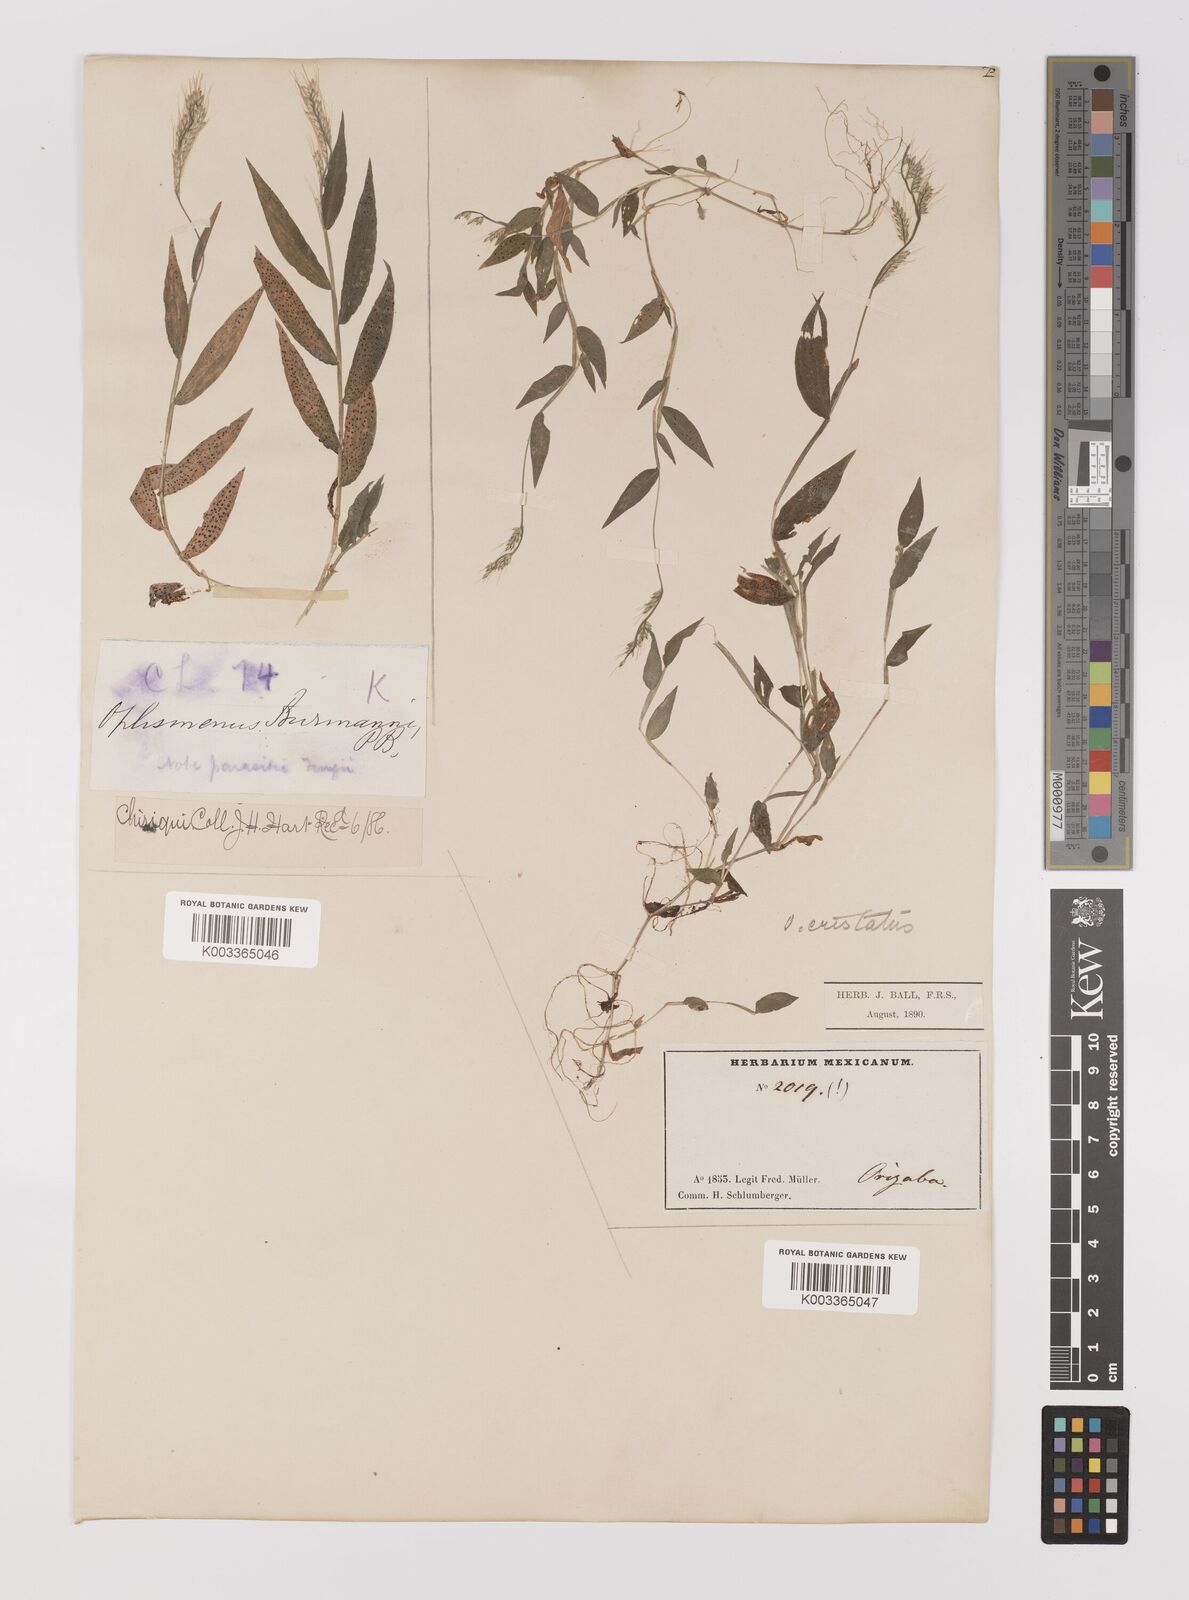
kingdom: Plantae
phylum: Tracheophyta
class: Liliopsida
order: Poales
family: Poaceae
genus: Oplismenus
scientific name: Oplismenus burmanni
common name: Burmann's basketgrass
